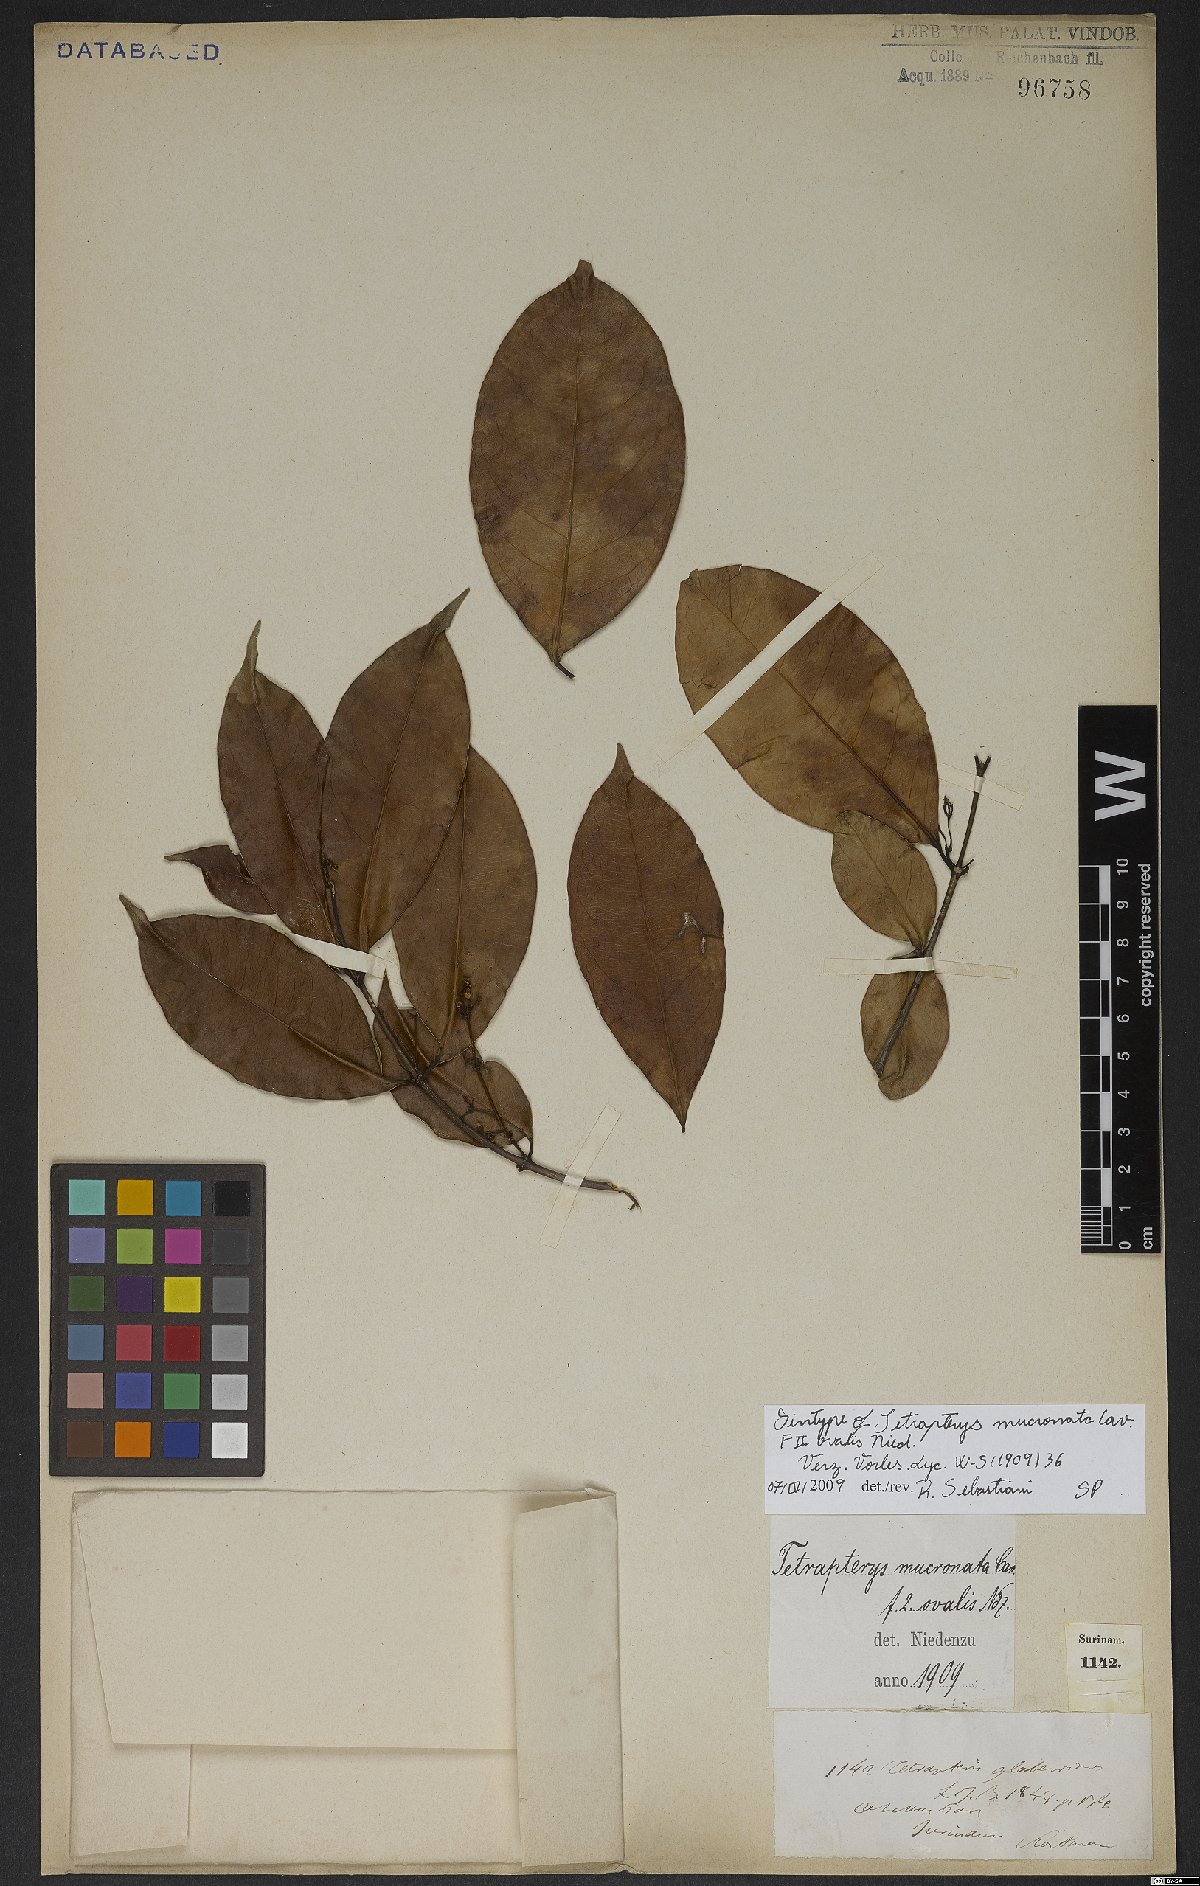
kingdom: Plantae
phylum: Tracheophyta
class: Magnoliopsida
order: Malpighiales
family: Malpighiaceae
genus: Tetrapterys
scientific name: Tetrapterys mucronata
